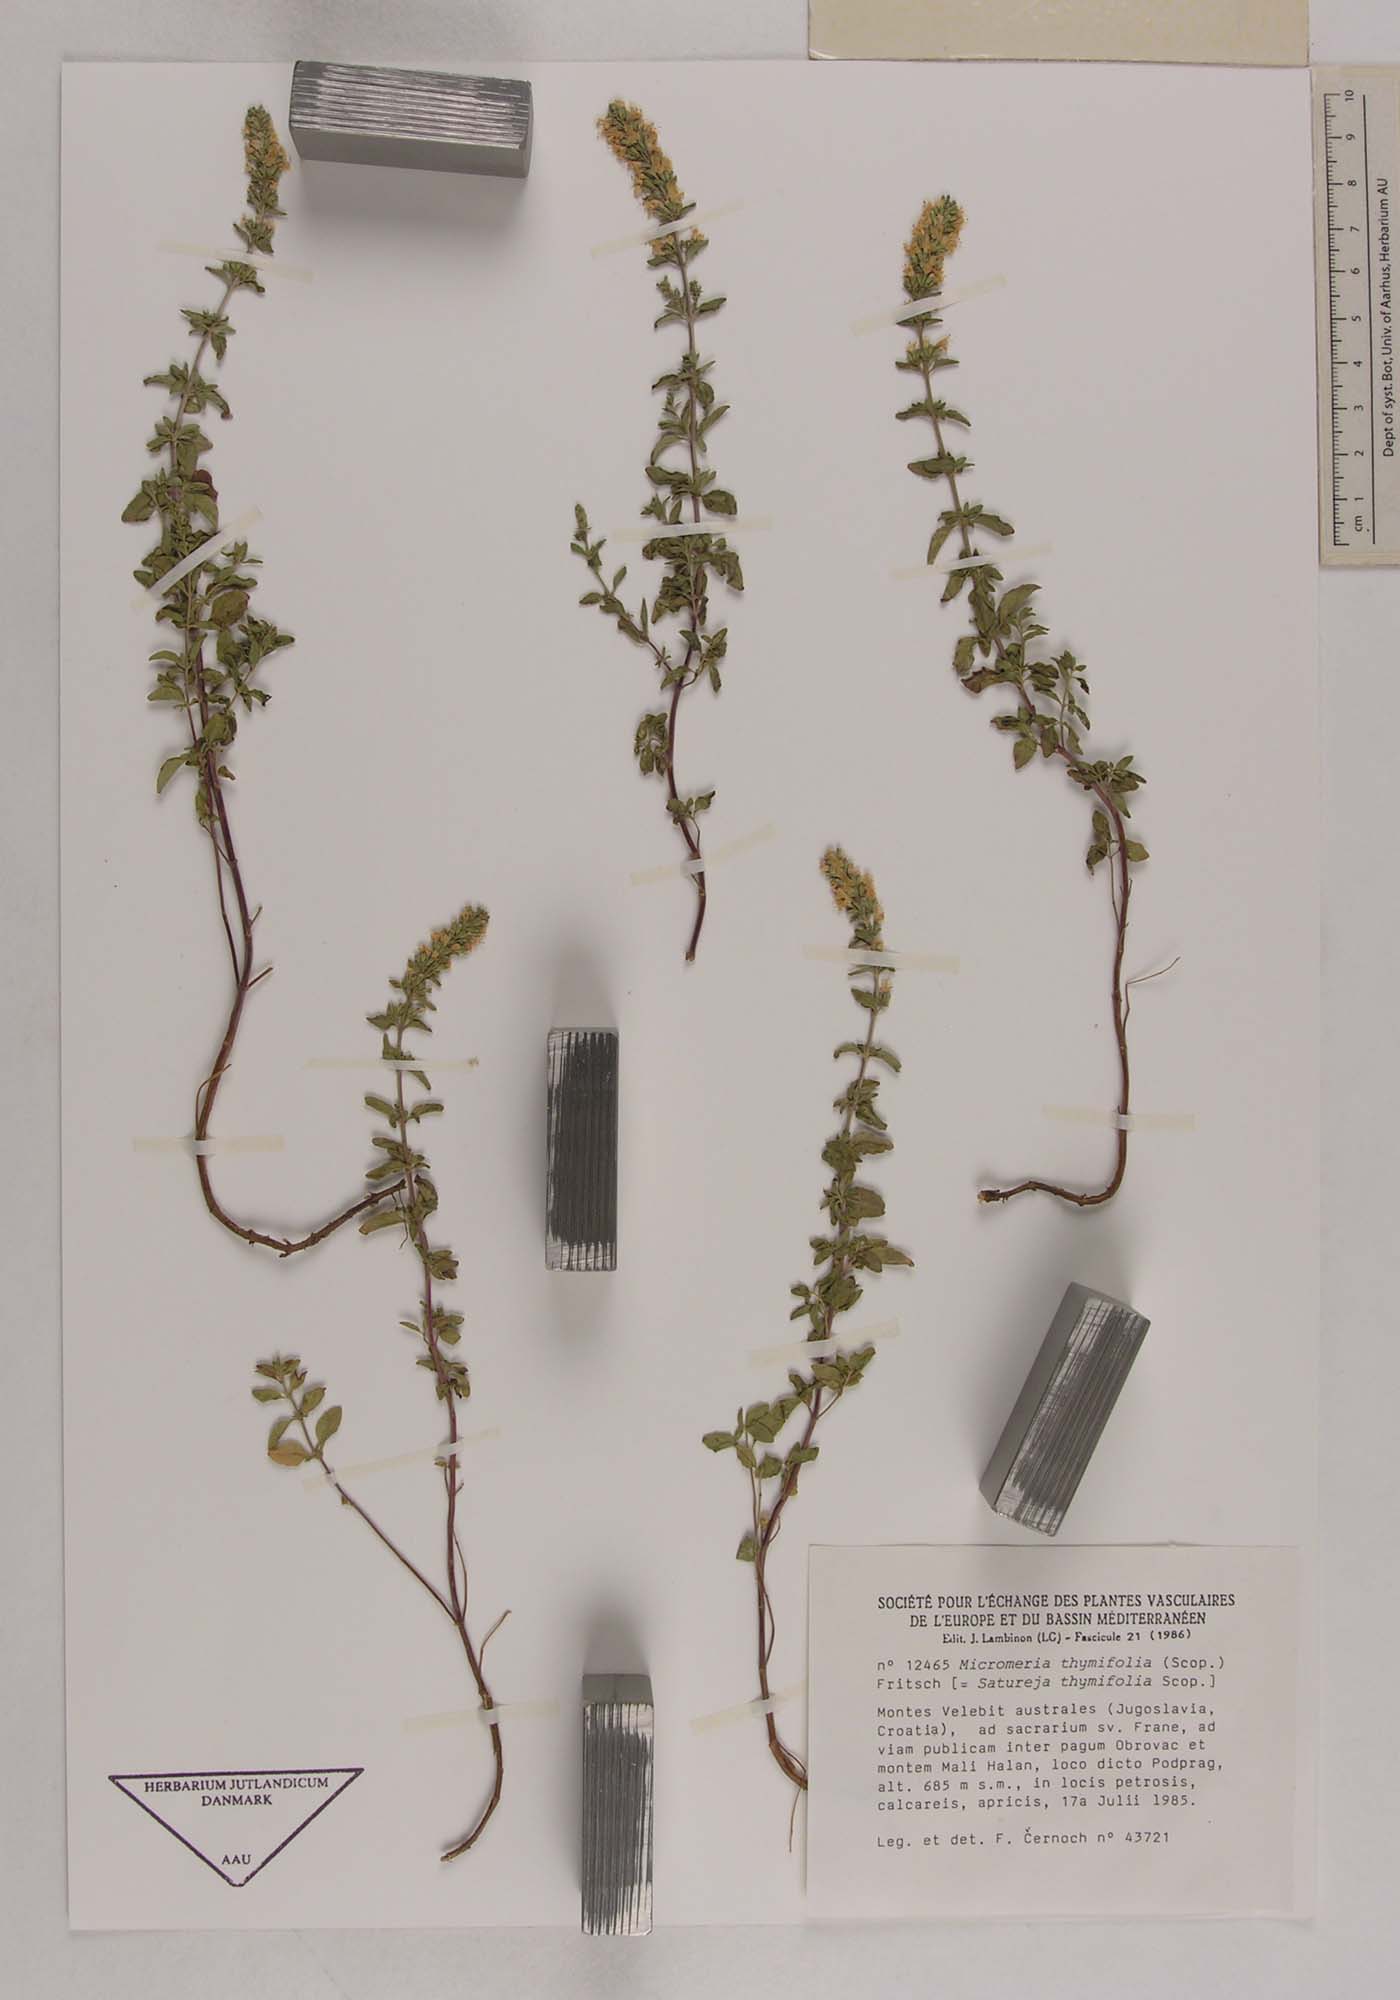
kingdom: Plantae
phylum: Tracheophyta
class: Magnoliopsida
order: Lamiales
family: Lamiaceae
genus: Clinopodium
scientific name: Clinopodium album
